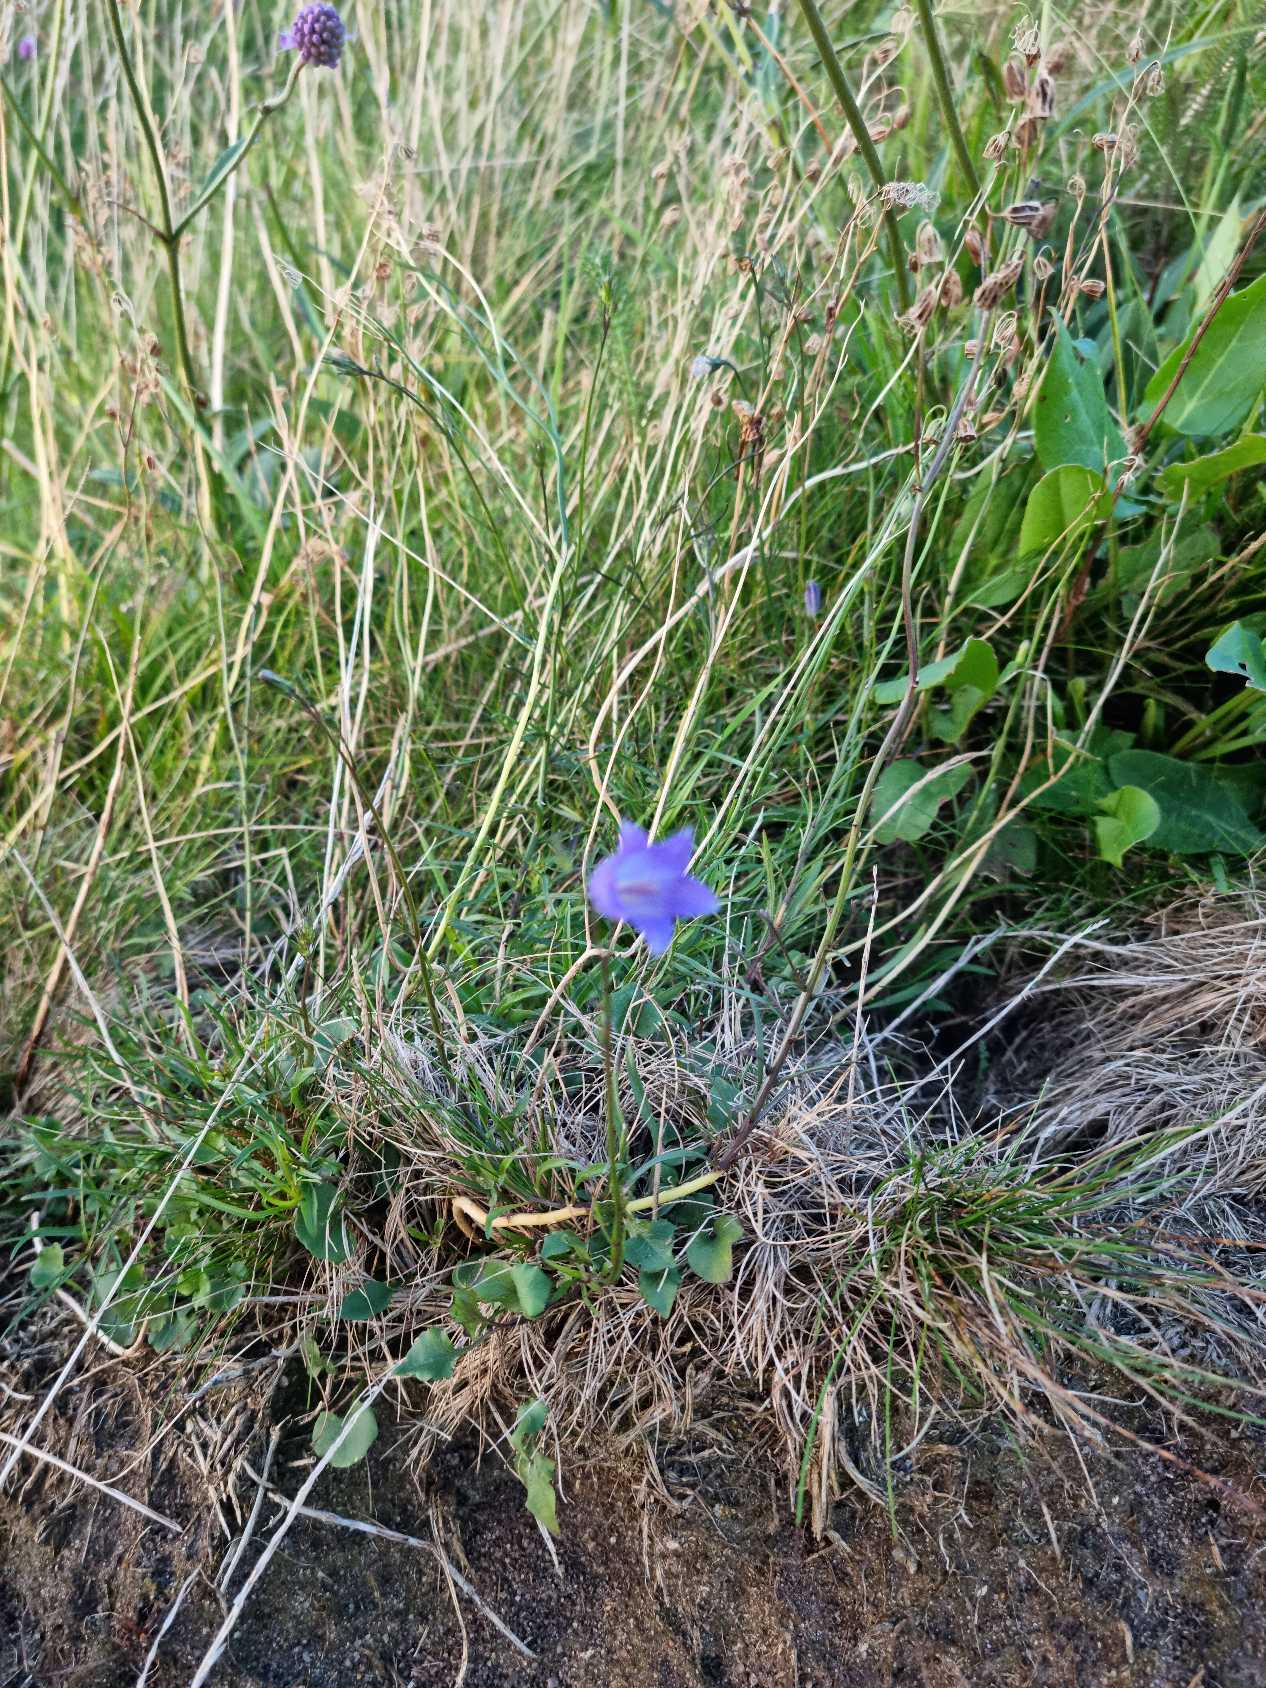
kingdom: Plantae
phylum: Tracheophyta
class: Magnoliopsida
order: Asterales
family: Campanulaceae
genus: Campanula
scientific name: Campanula rotundifolia
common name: Liden klokke
